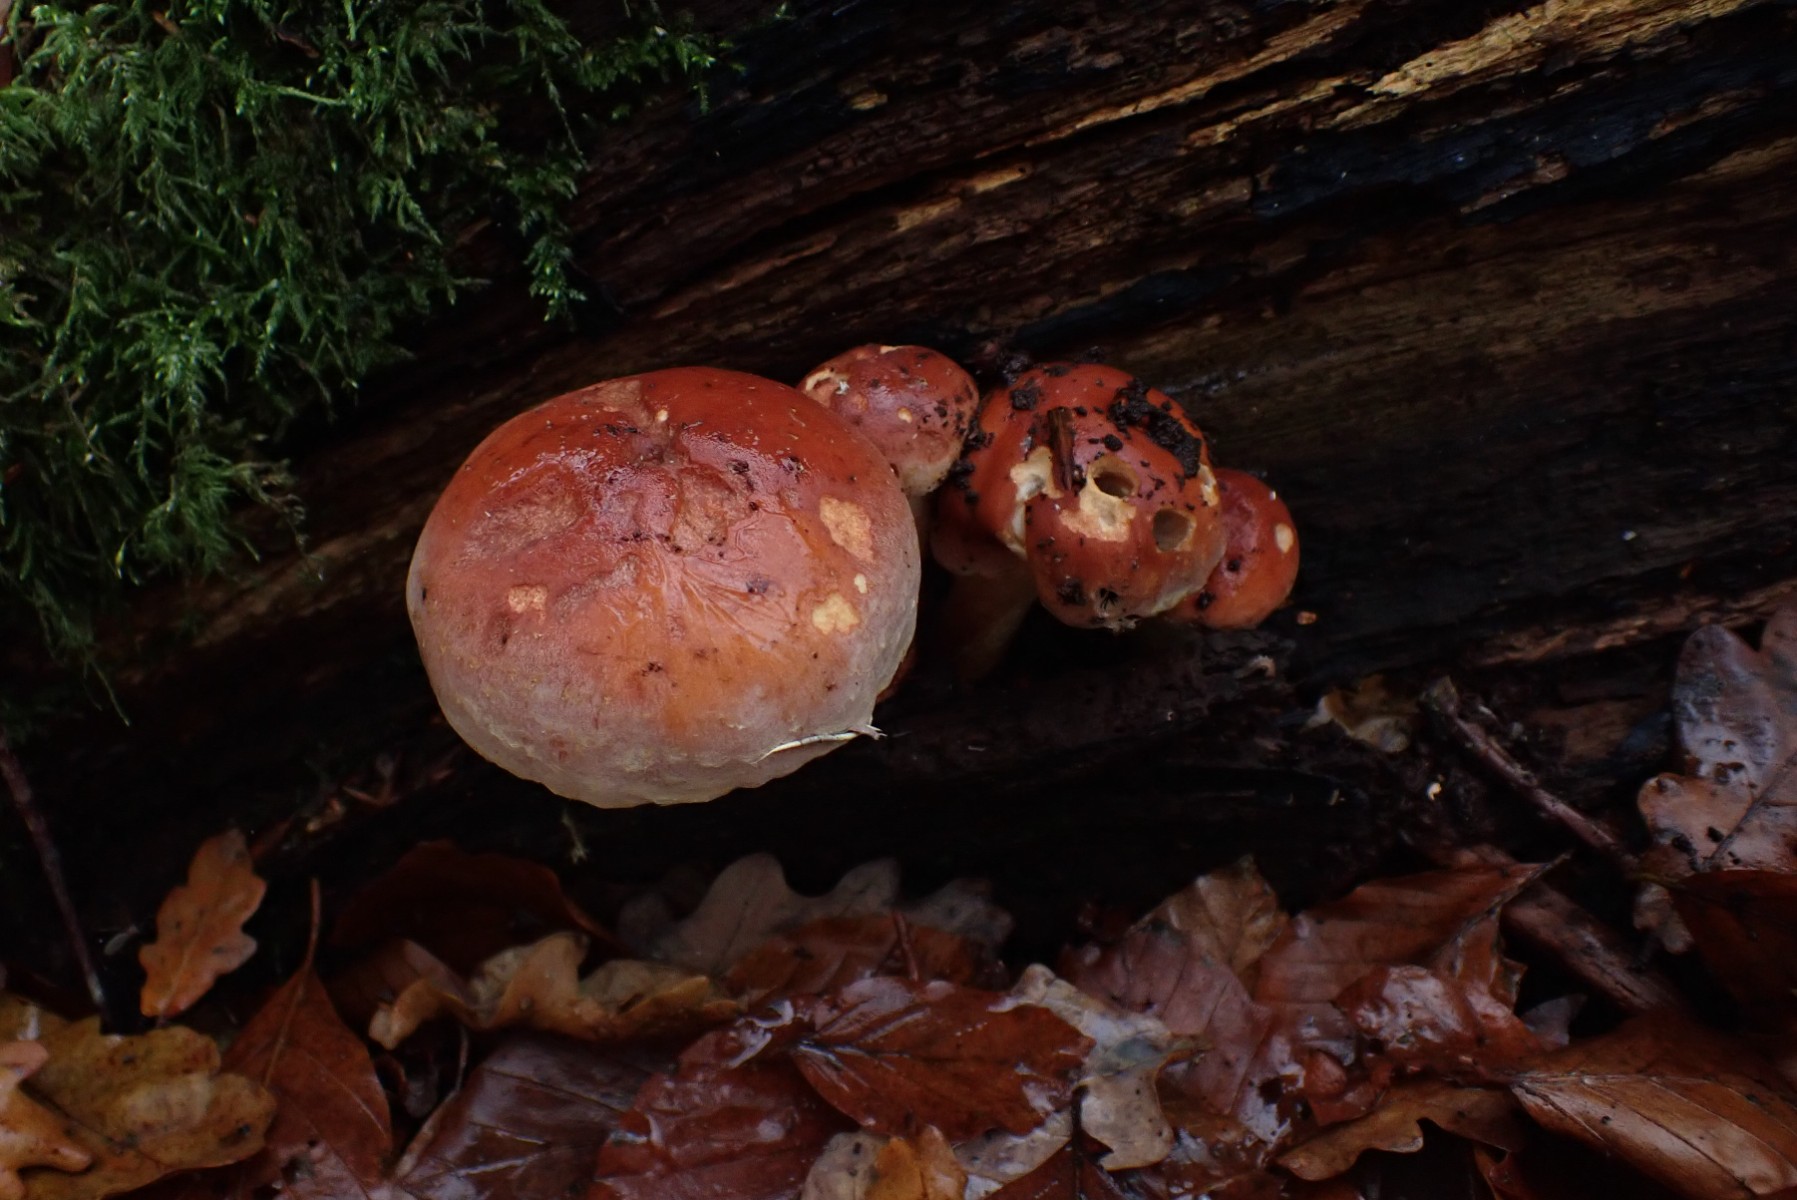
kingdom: Fungi
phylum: Basidiomycota
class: Agaricomycetes
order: Agaricales
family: Strophariaceae
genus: Hypholoma
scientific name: Hypholoma lateritium
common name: teglrød svovlhat
